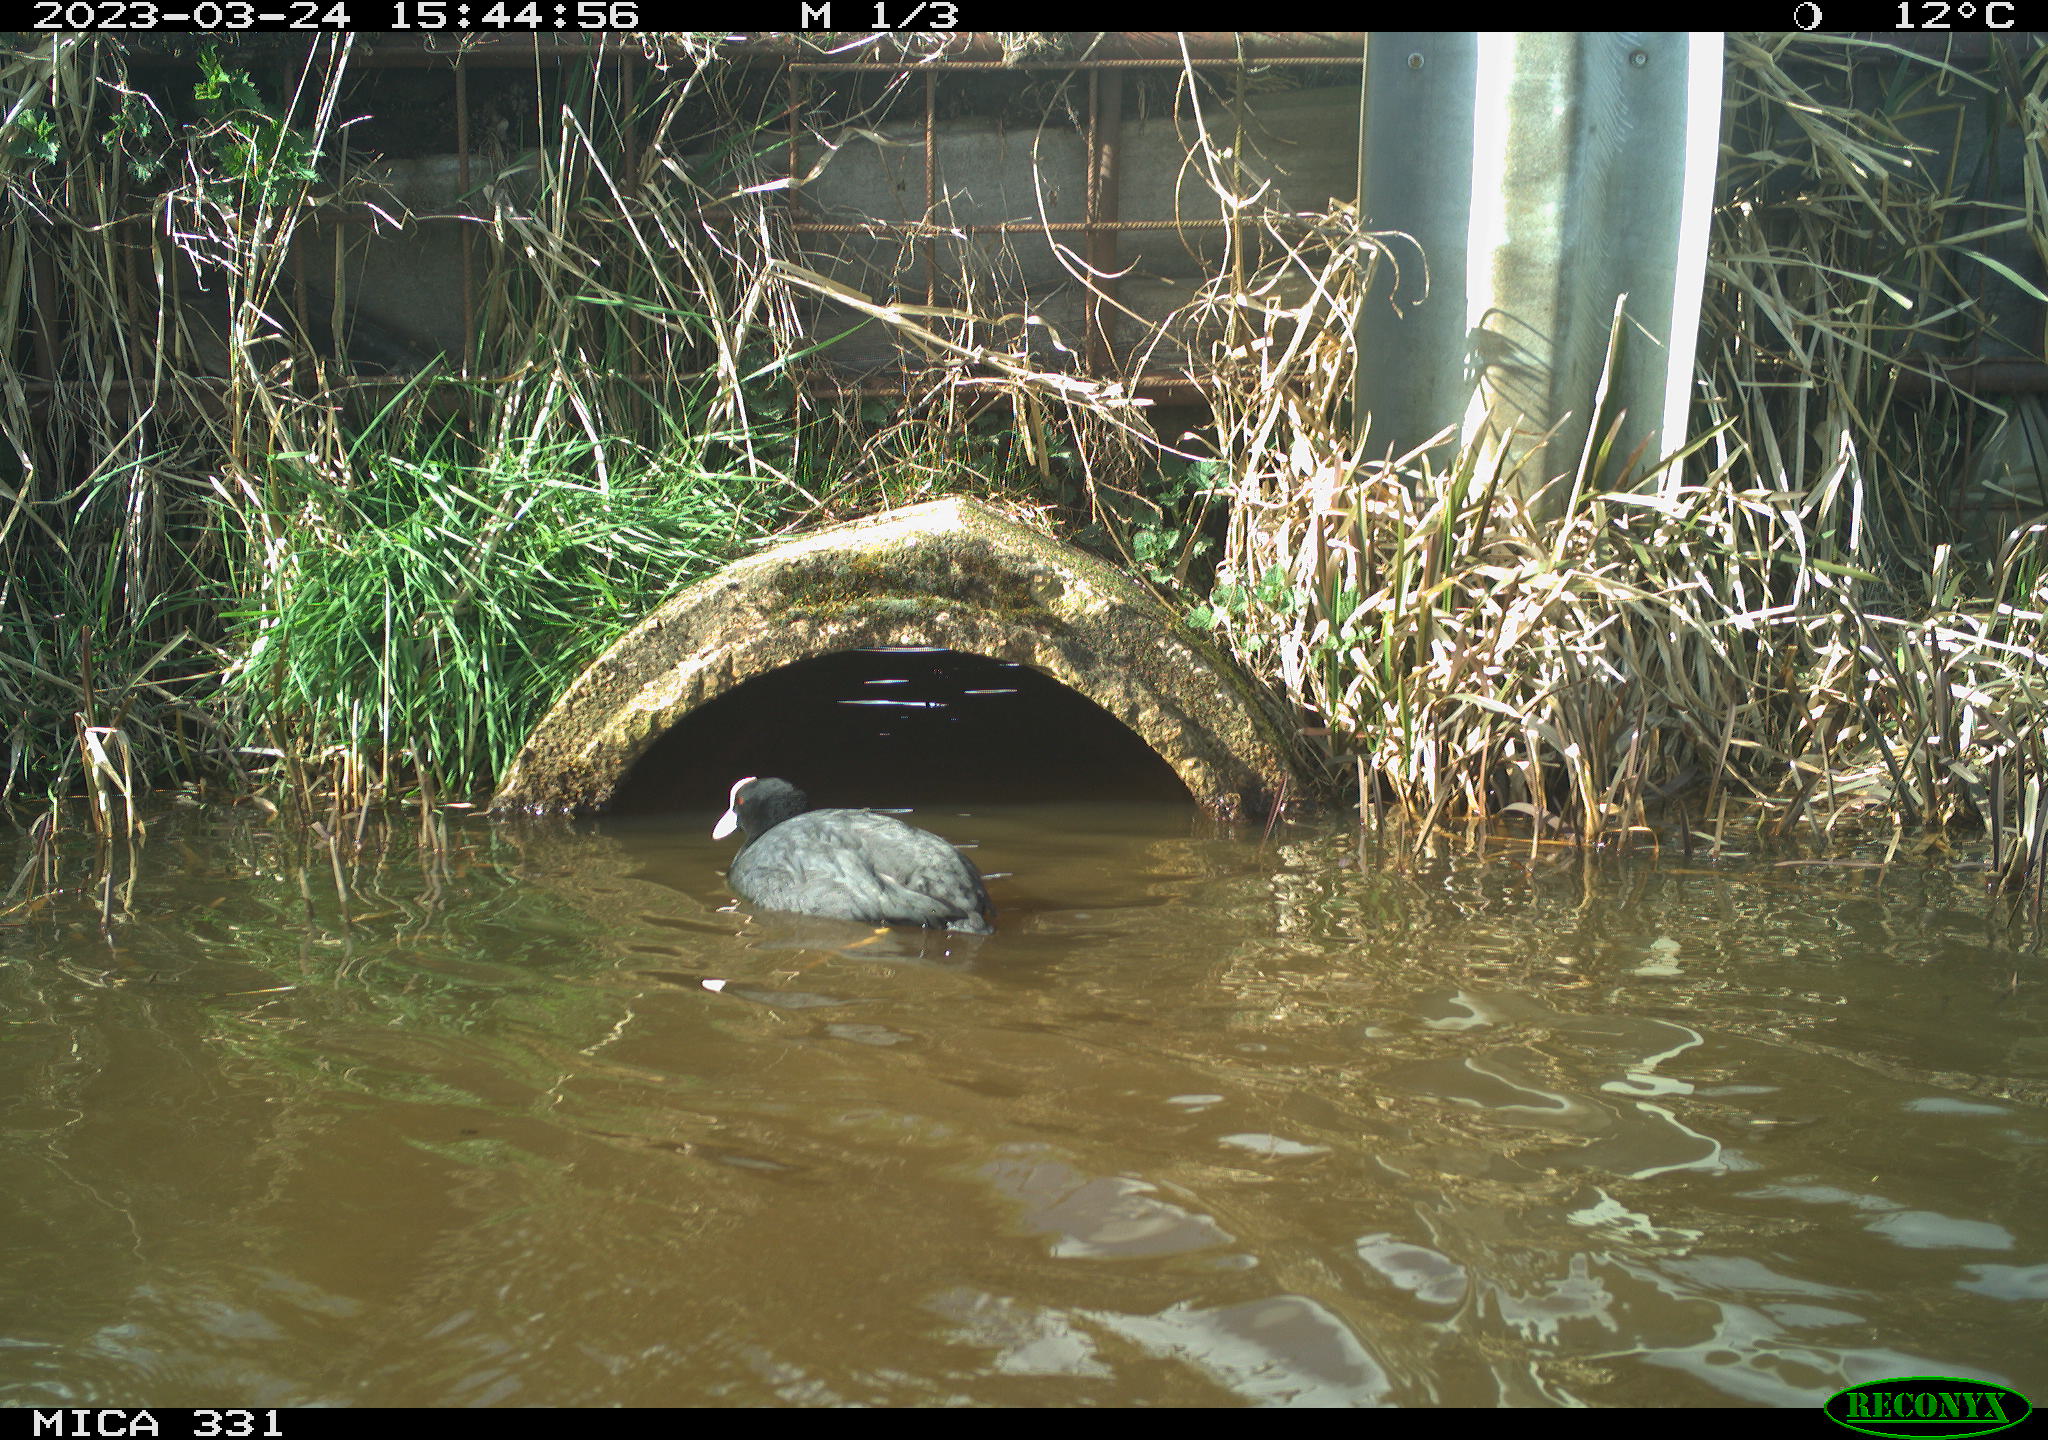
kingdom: Animalia
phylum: Chordata
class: Aves
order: Gruiformes
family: Rallidae
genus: Fulica
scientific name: Fulica atra
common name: Eurasian coot
